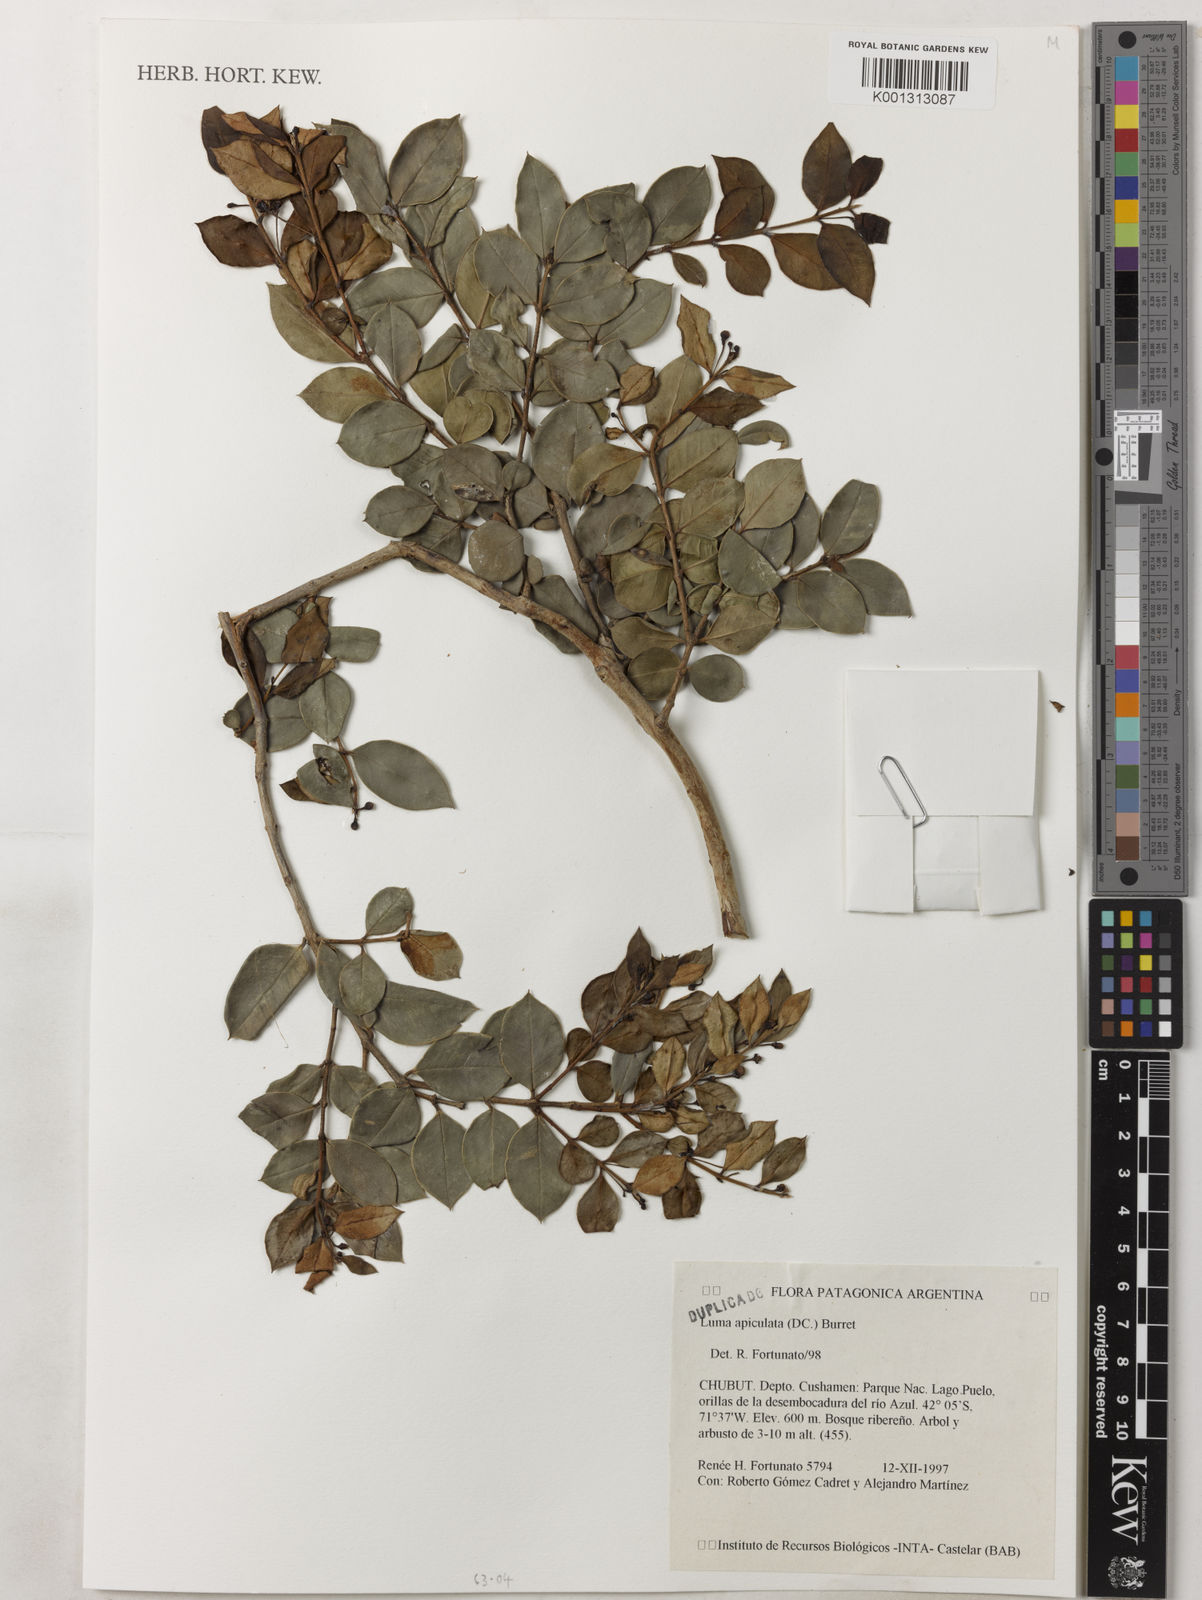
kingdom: Plantae
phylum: Tracheophyta
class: Magnoliopsida
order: Myrtales
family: Myrtaceae
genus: Luma
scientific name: Luma apiculata
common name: Chilean myrtle
